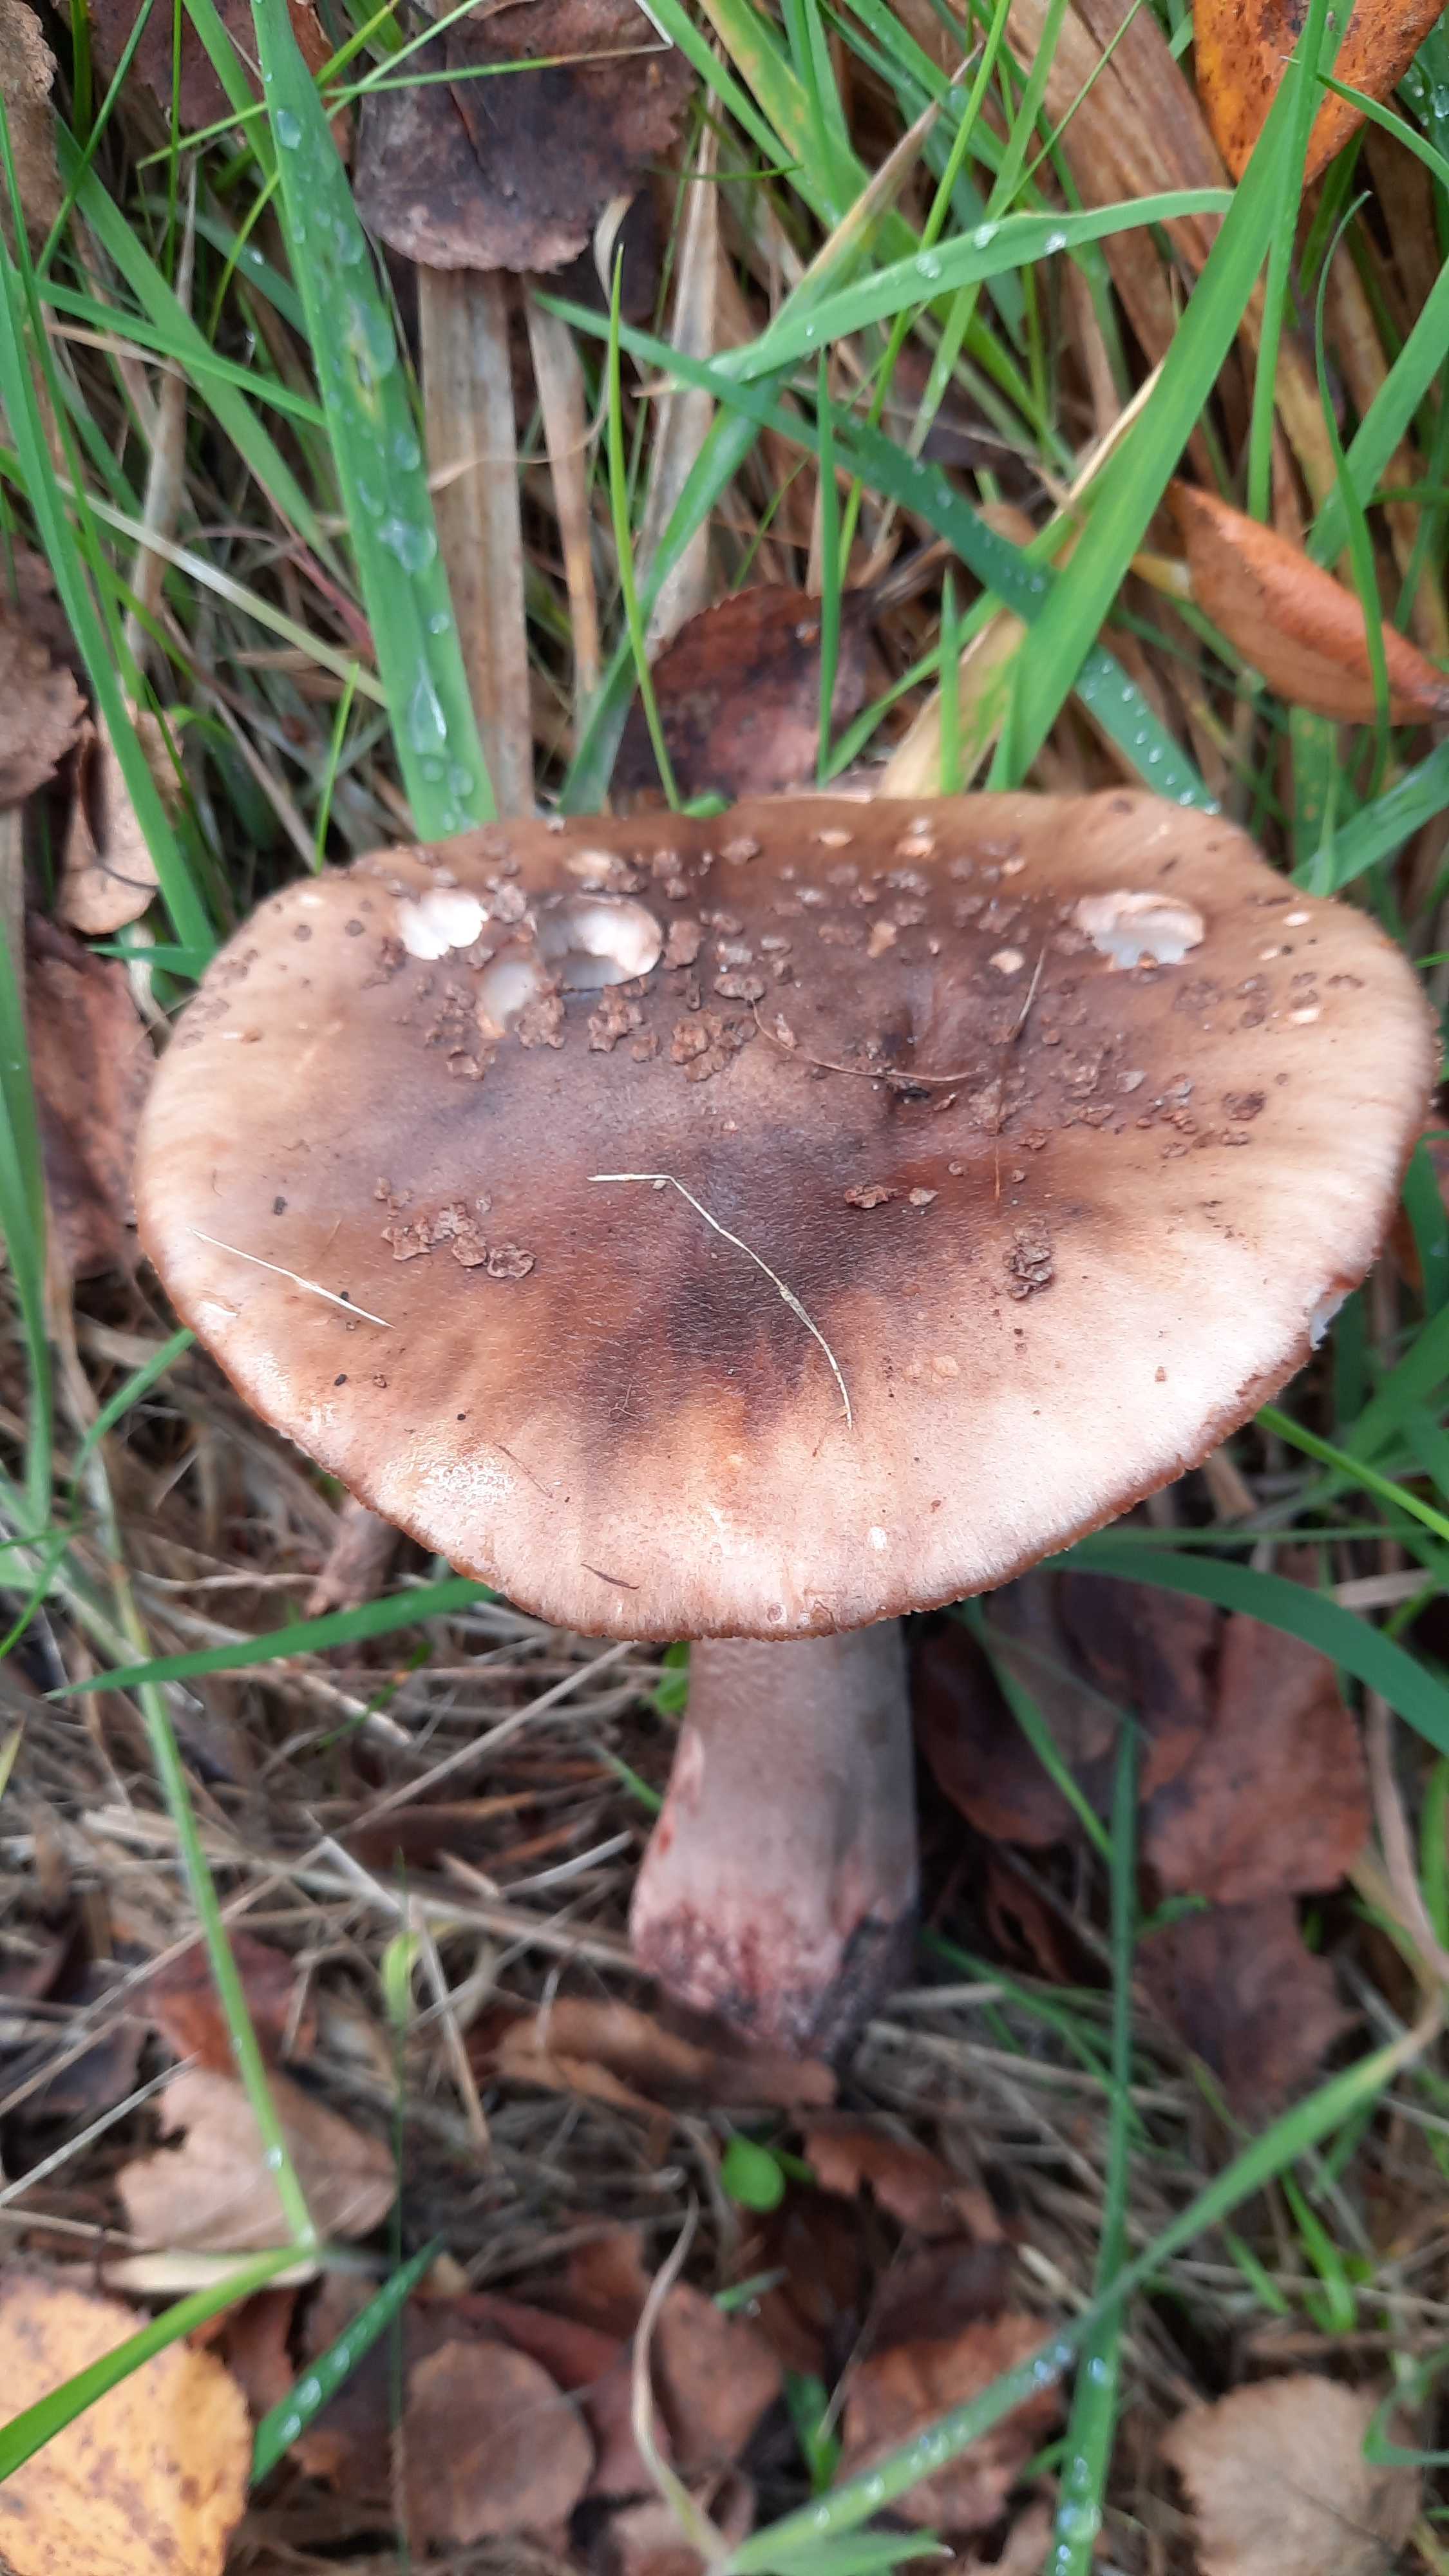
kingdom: Fungi
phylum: Basidiomycota
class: Agaricomycetes
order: Agaricales
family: Amanitaceae
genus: Amanita
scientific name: Amanita rubescens
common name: rødmende fluesvamp
